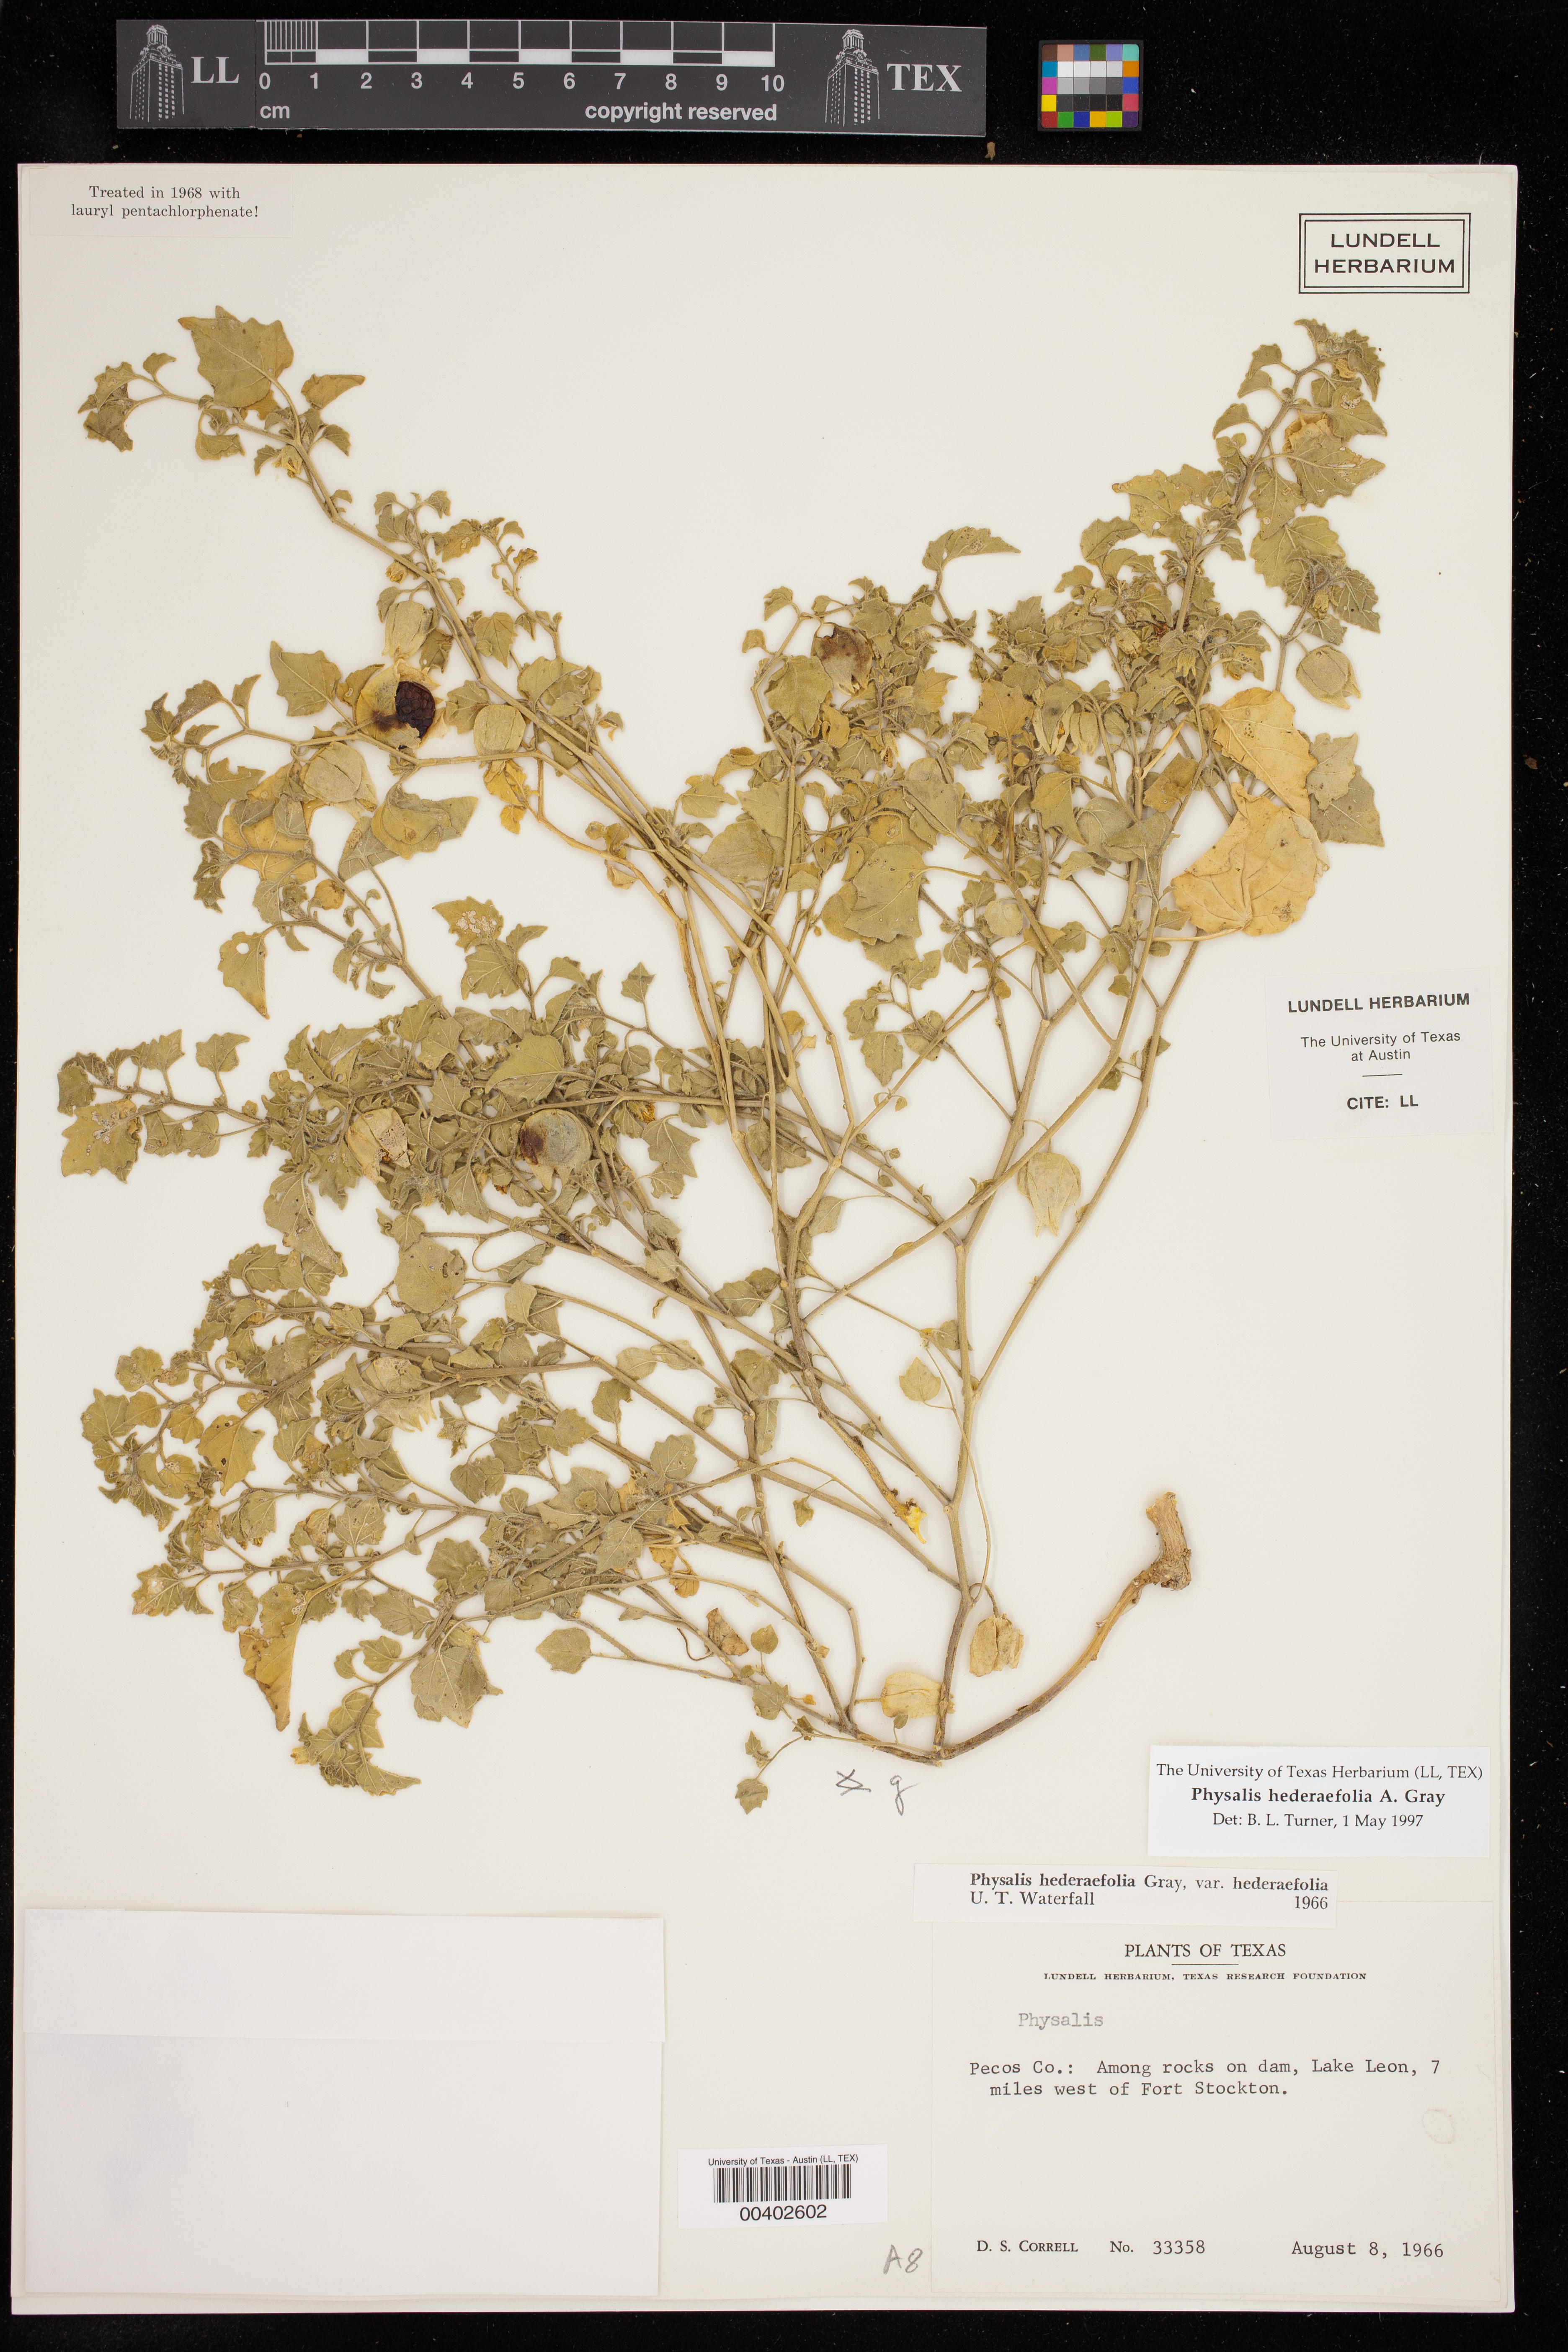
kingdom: Plantae
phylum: Tracheophyta
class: Magnoliopsida
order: Solanales
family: Solanaceae
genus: Physalis
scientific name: Physalis hederifolia
